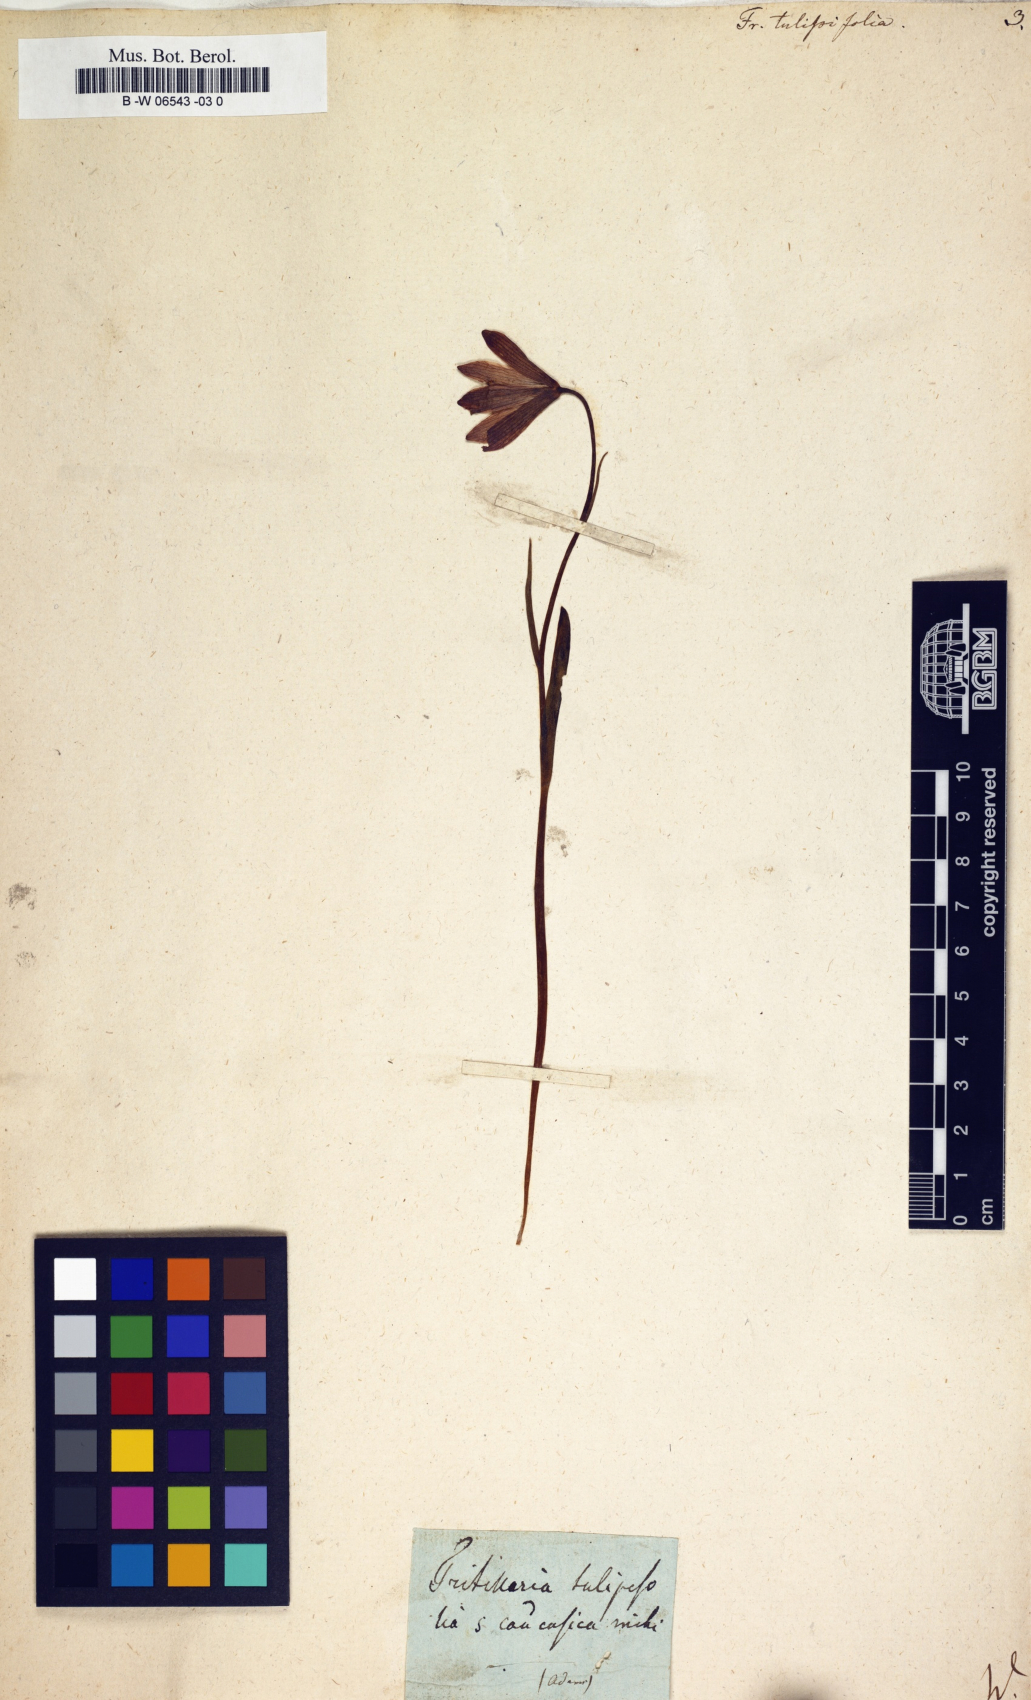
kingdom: Plantae
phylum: Tracheophyta
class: Liliopsida
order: Liliales
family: Liliaceae
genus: Fritillaria
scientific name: Fritillaria tulipifolia
